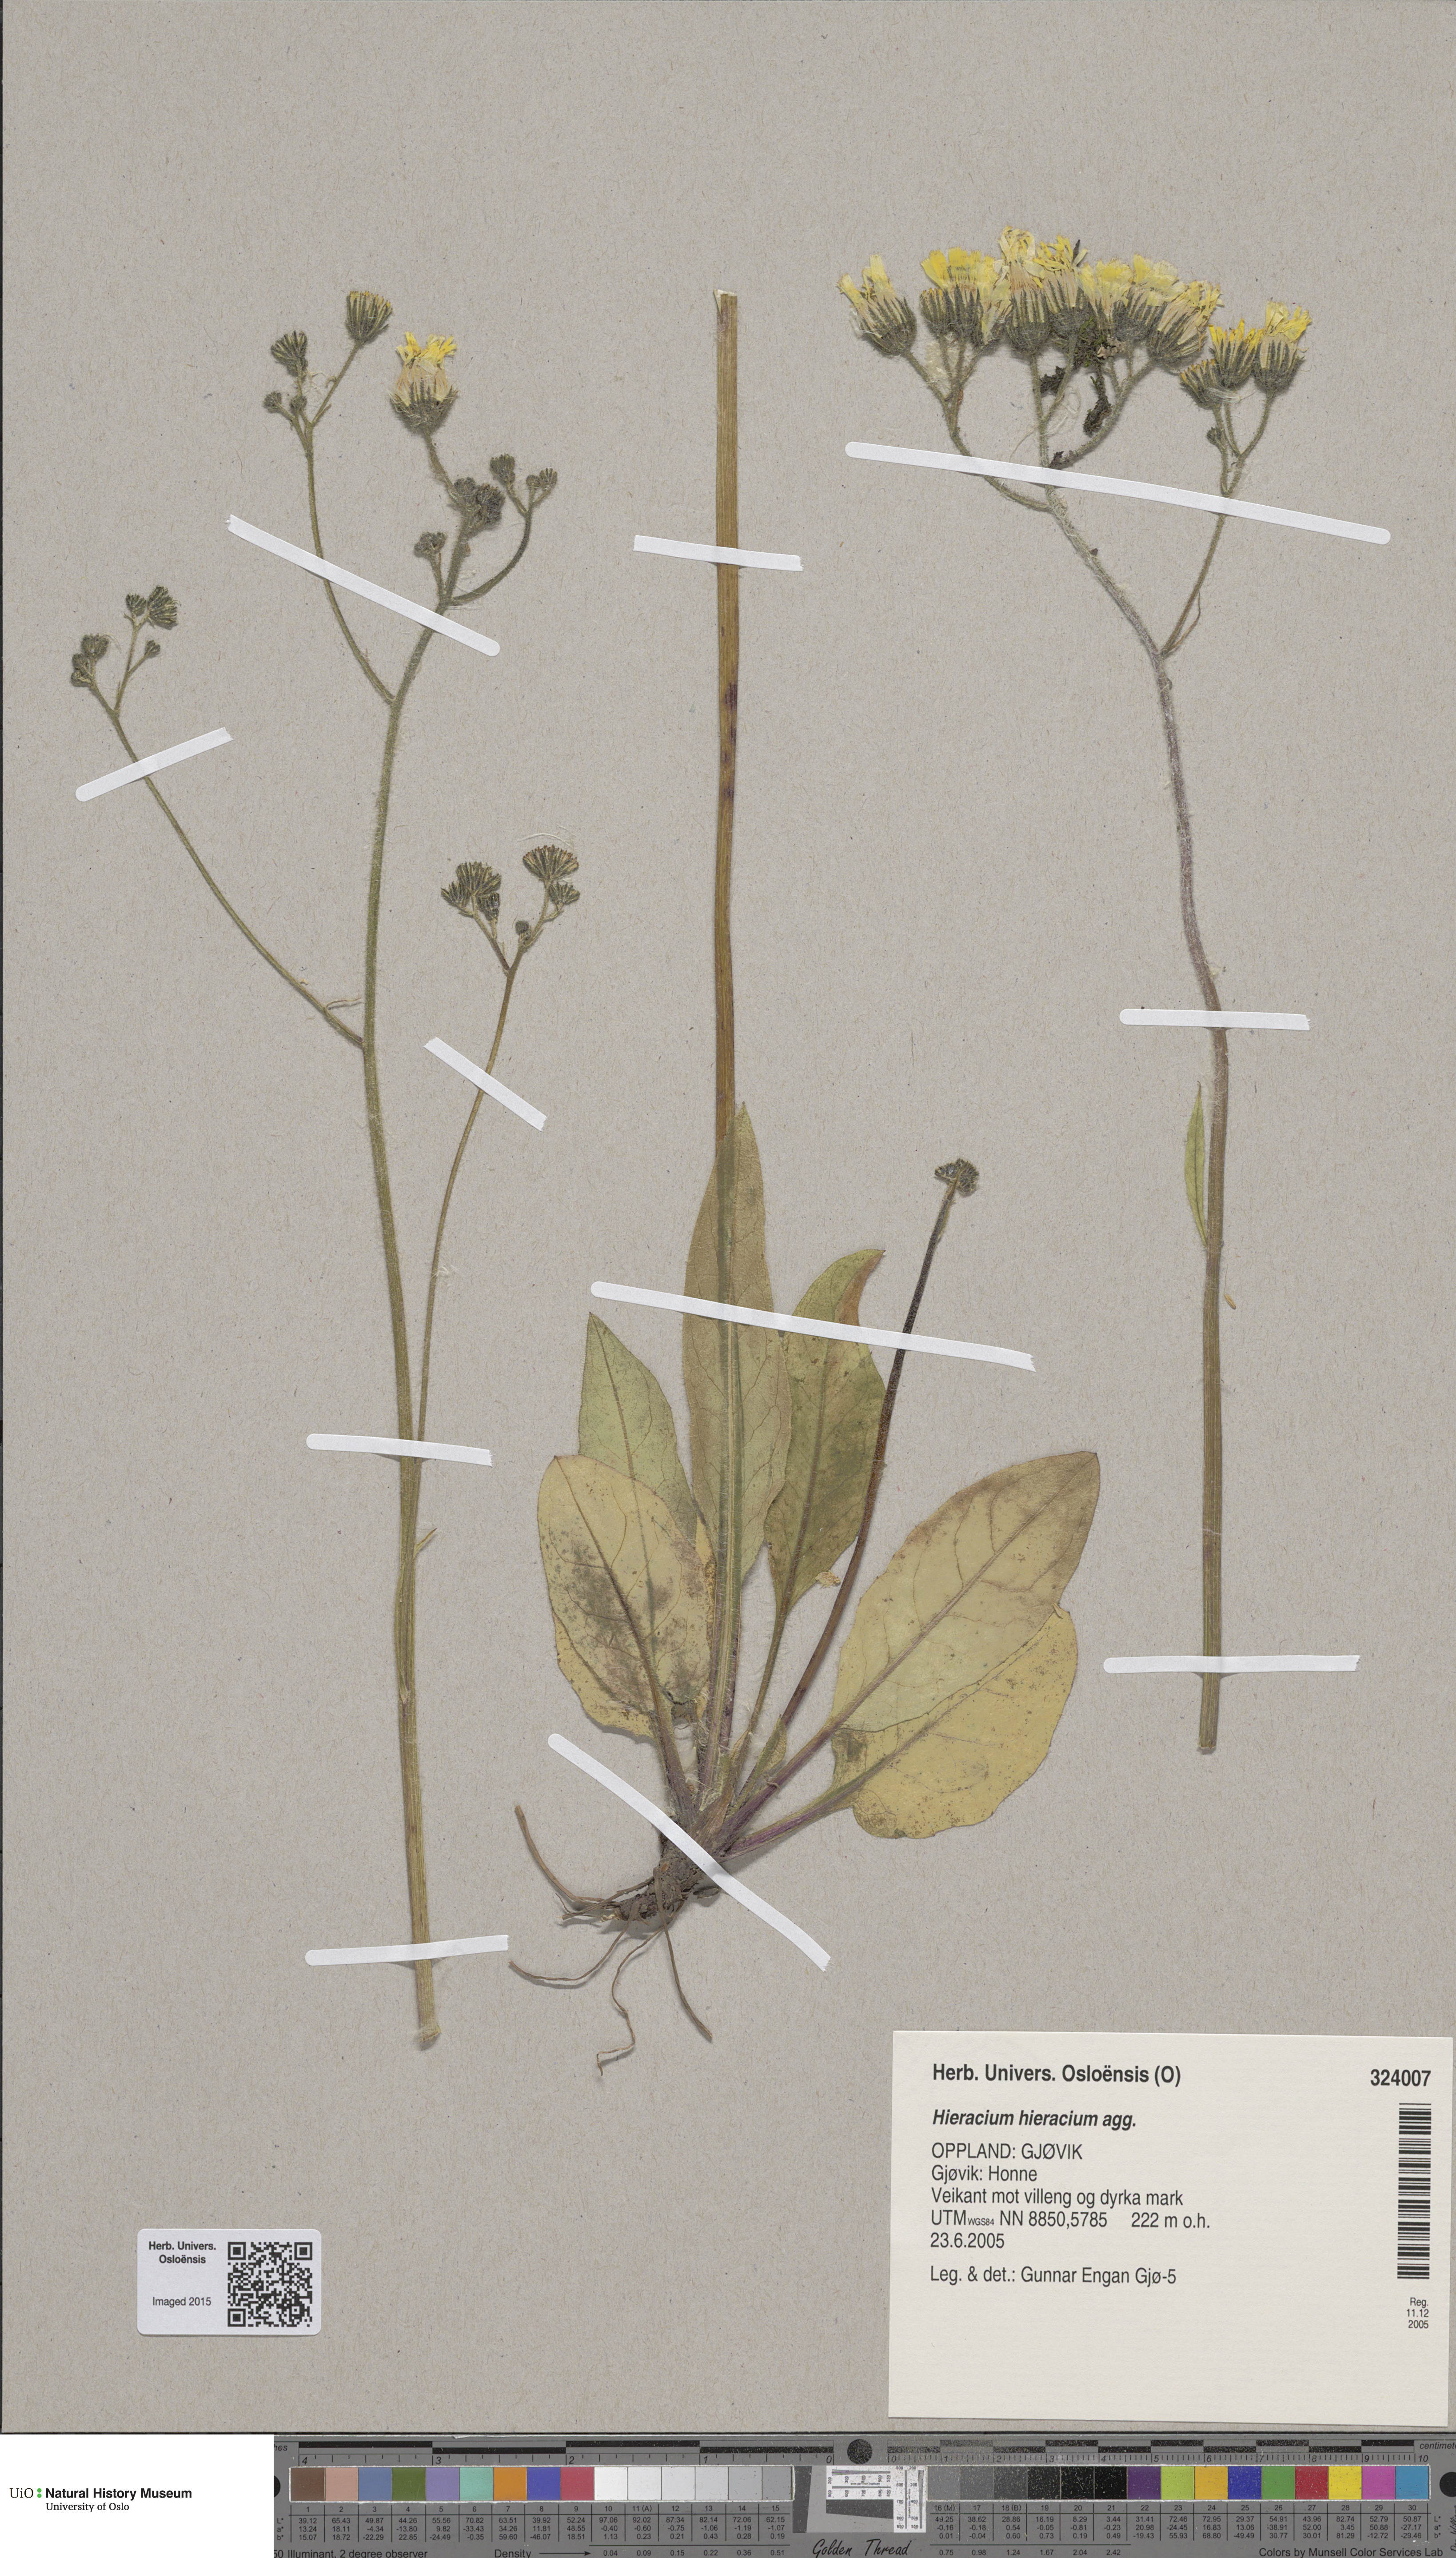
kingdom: Plantae
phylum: Tracheophyta
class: Magnoliopsida
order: Asterales
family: Asteraceae
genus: Hieracium
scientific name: Hieracium
